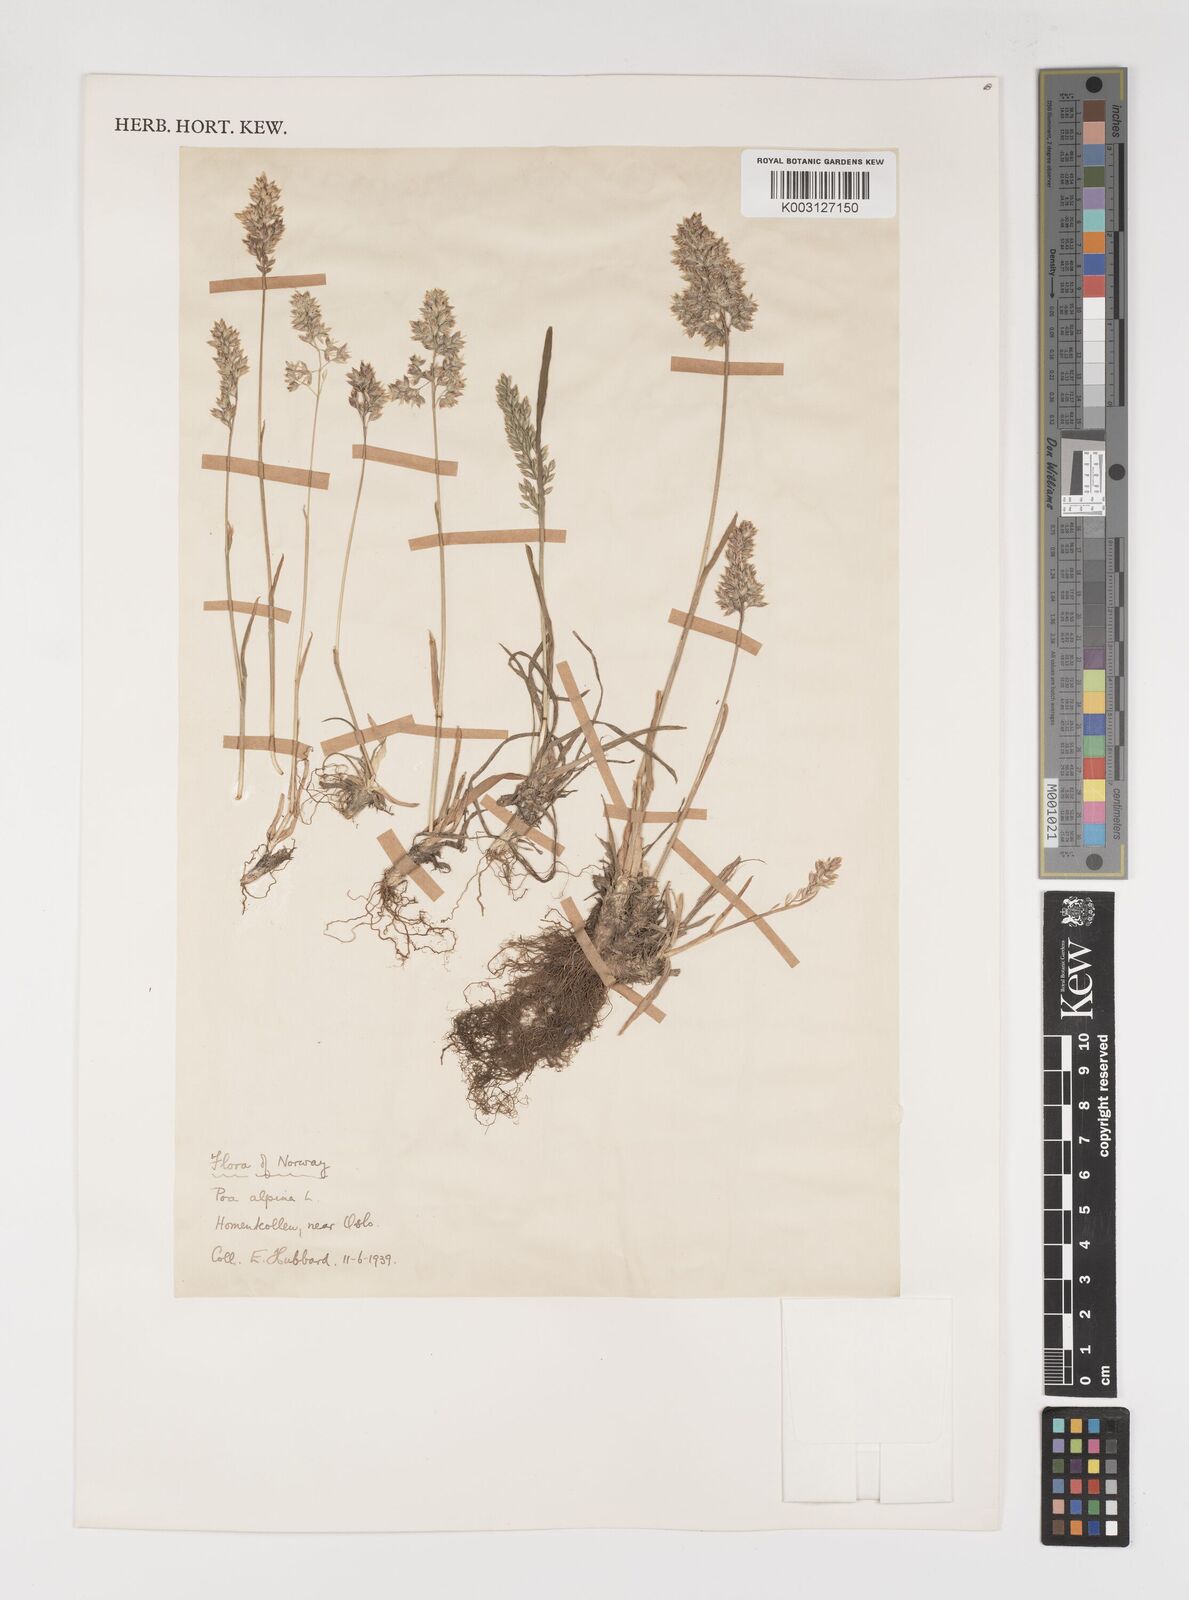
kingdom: Plantae
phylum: Tracheophyta
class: Liliopsida
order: Poales
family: Poaceae
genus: Poa
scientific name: Poa alpina
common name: Alpine bluegrass
